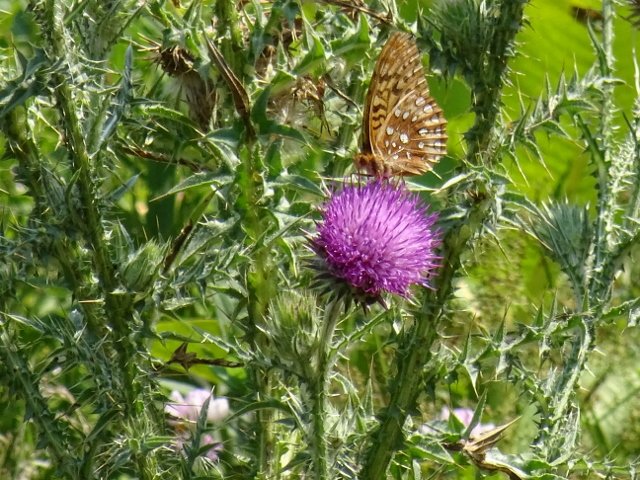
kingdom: Animalia
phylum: Arthropoda
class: Insecta
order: Lepidoptera
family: Nymphalidae
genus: Speyeria
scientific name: Speyeria cybele
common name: Great Spangled Fritillary
